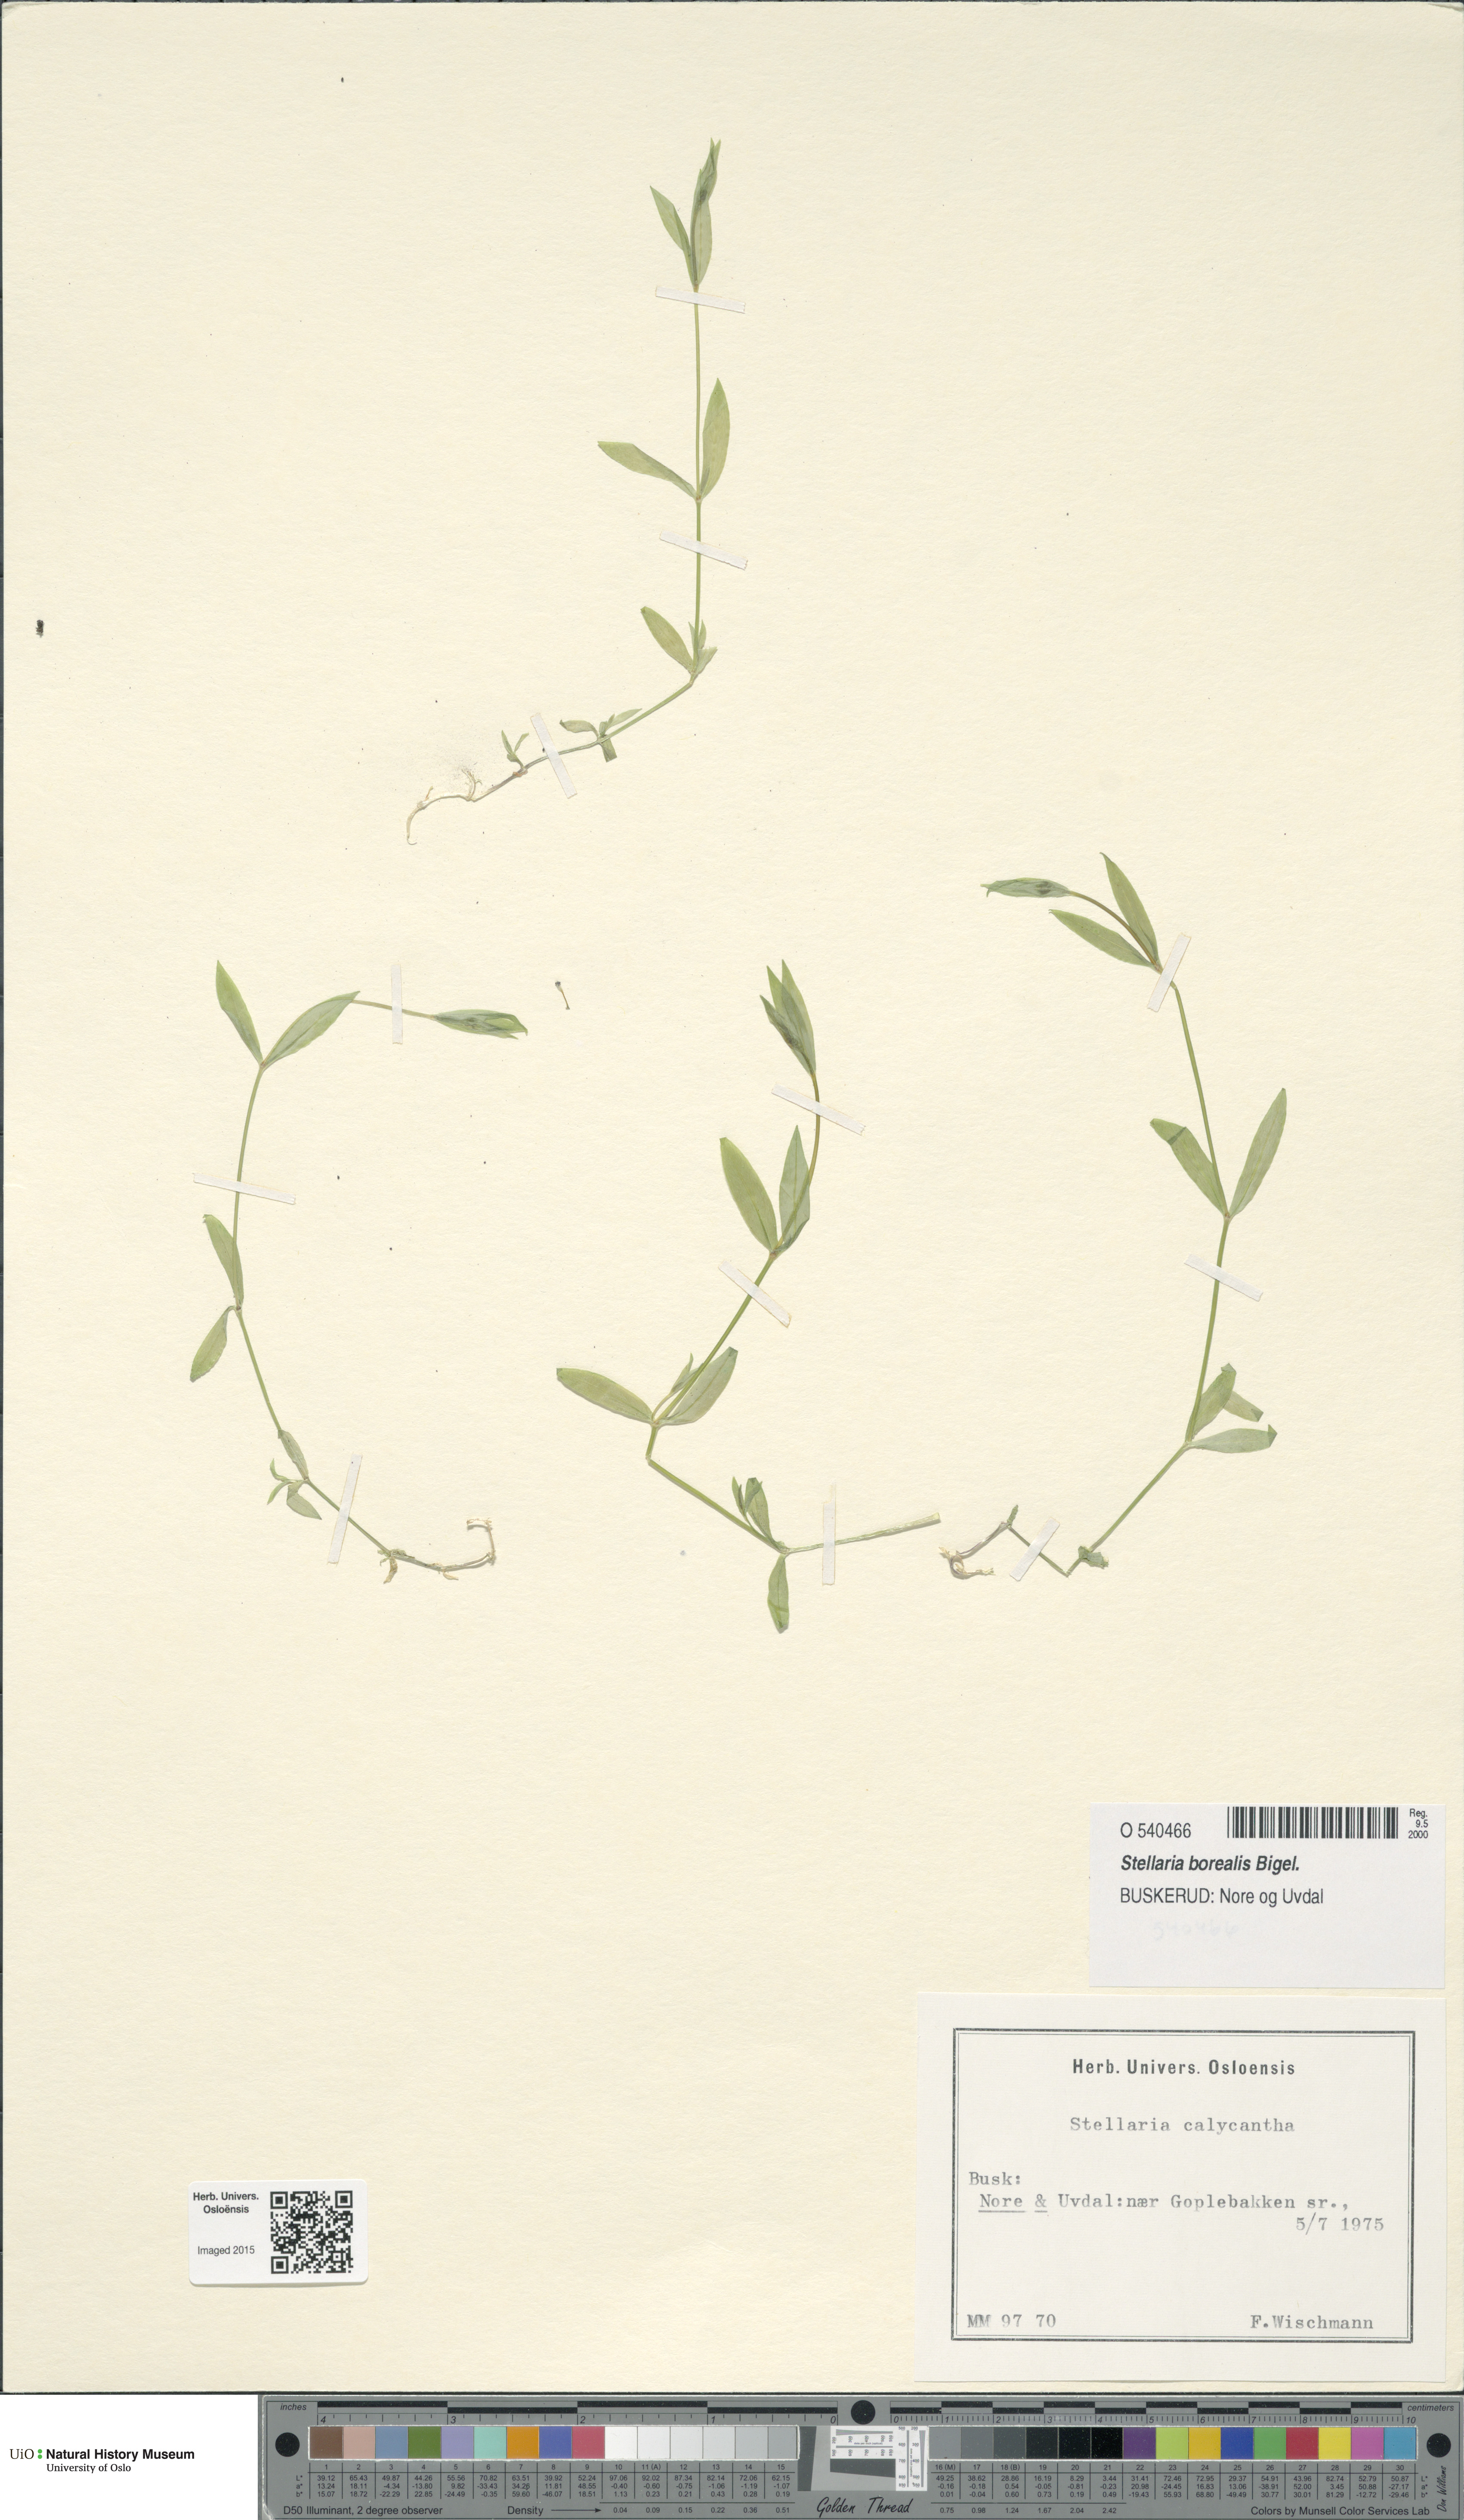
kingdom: Plantae
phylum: Tracheophyta
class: Magnoliopsida
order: Caryophyllales
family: Caryophyllaceae
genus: Stellaria
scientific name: Stellaria borealis
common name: Boreal starwort
